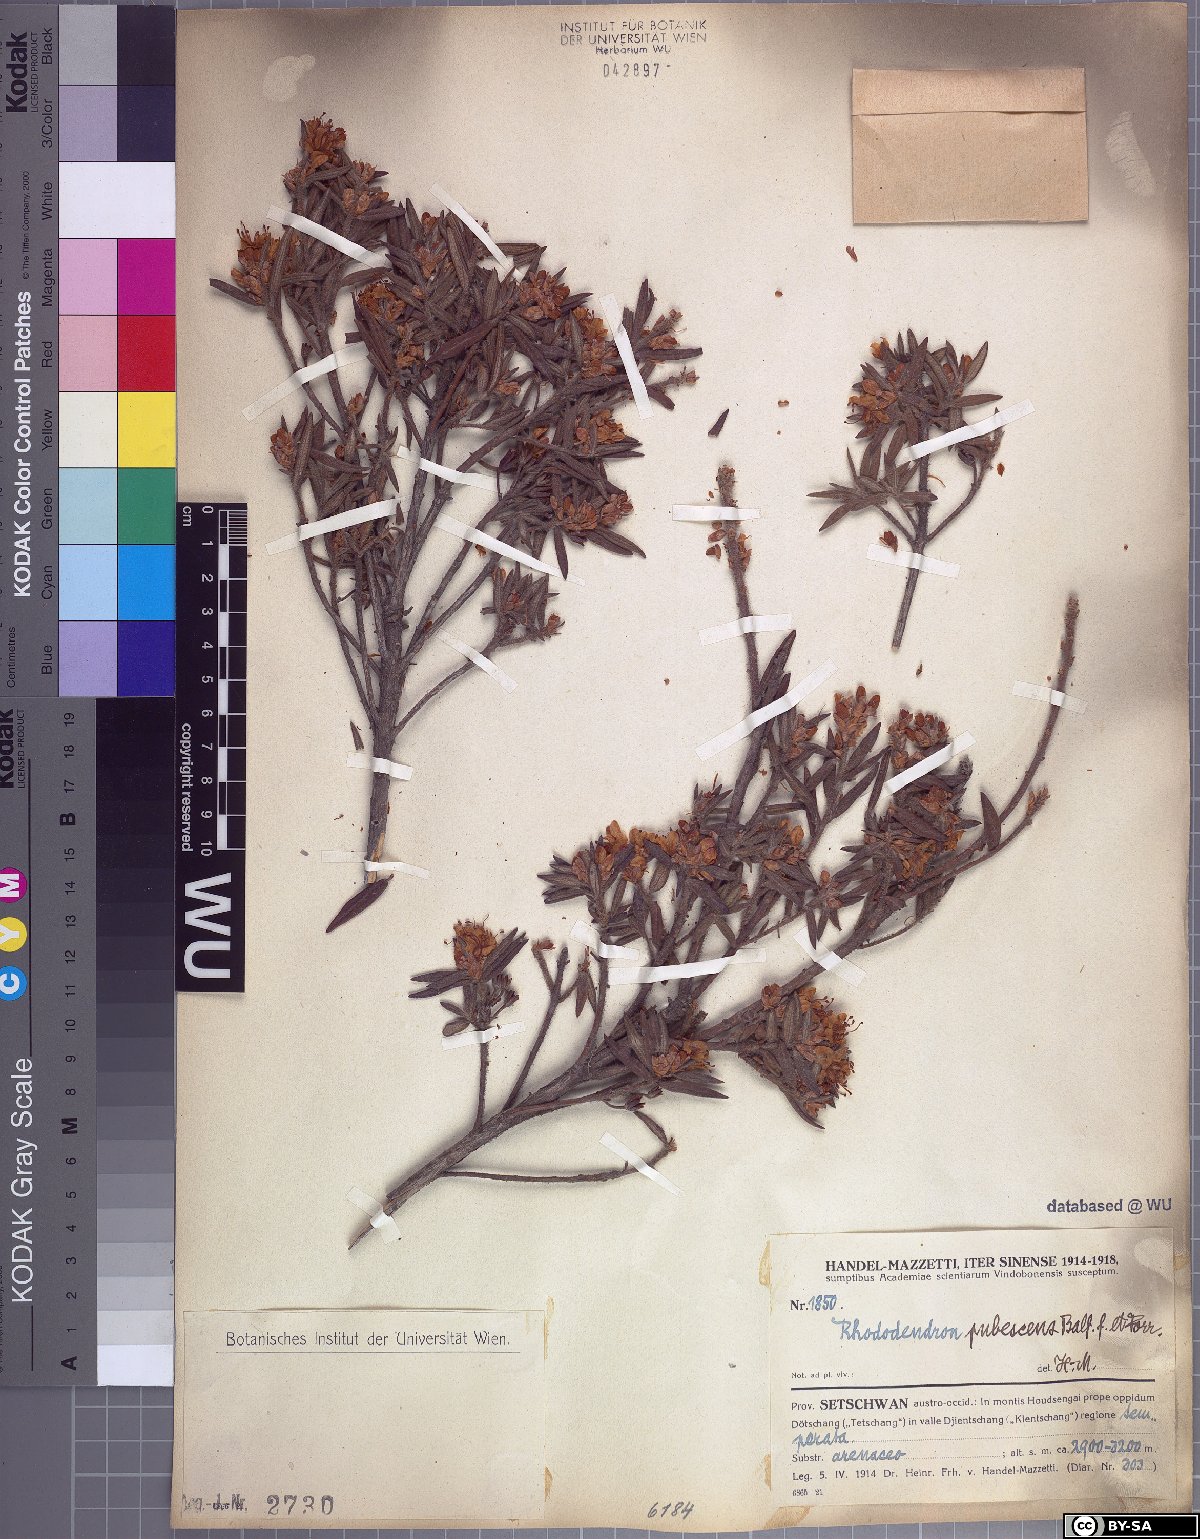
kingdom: Plantae
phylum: Tracheophyta
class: Magnoliopsida
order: Ericales
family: Ericaceae
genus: Rhododendron
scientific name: Rhododendron pubescens
